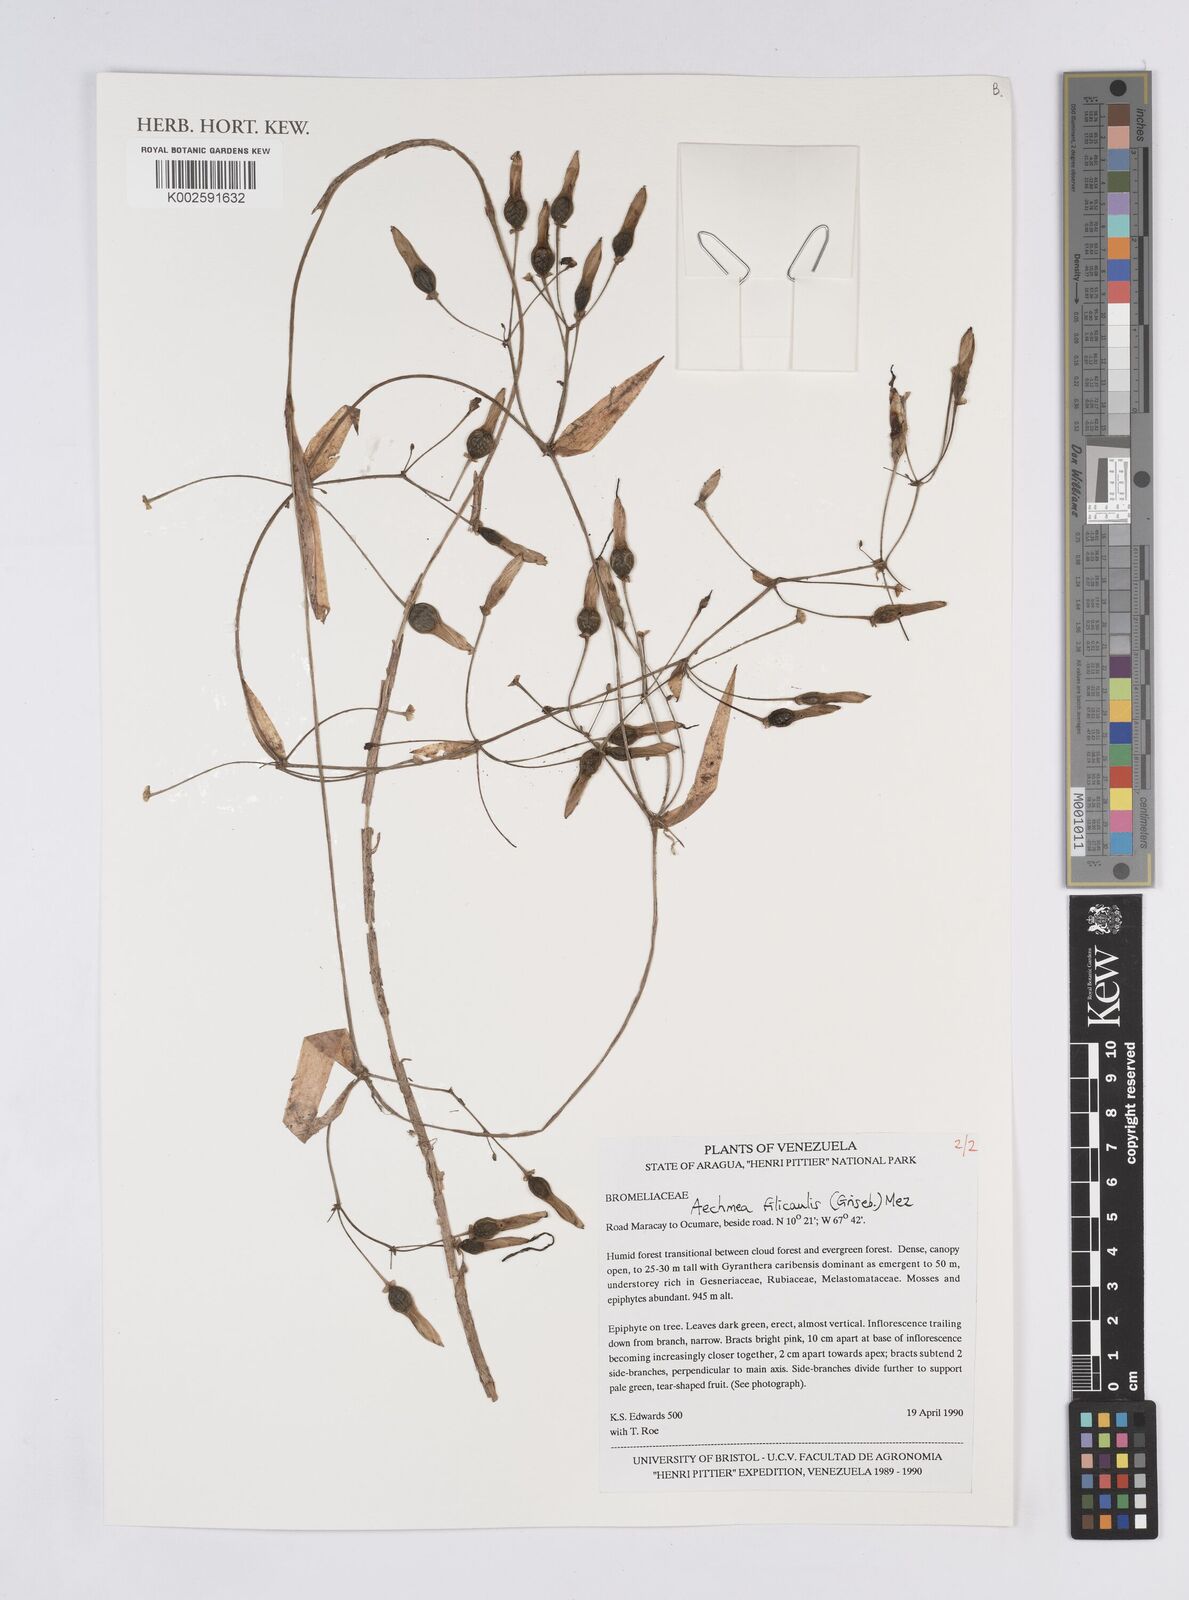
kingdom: Plantae
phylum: Tracheophyta
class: Liliopsida
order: Poales
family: Bromeliaceae
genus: Aechmea
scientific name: Aechmea filicaulis
